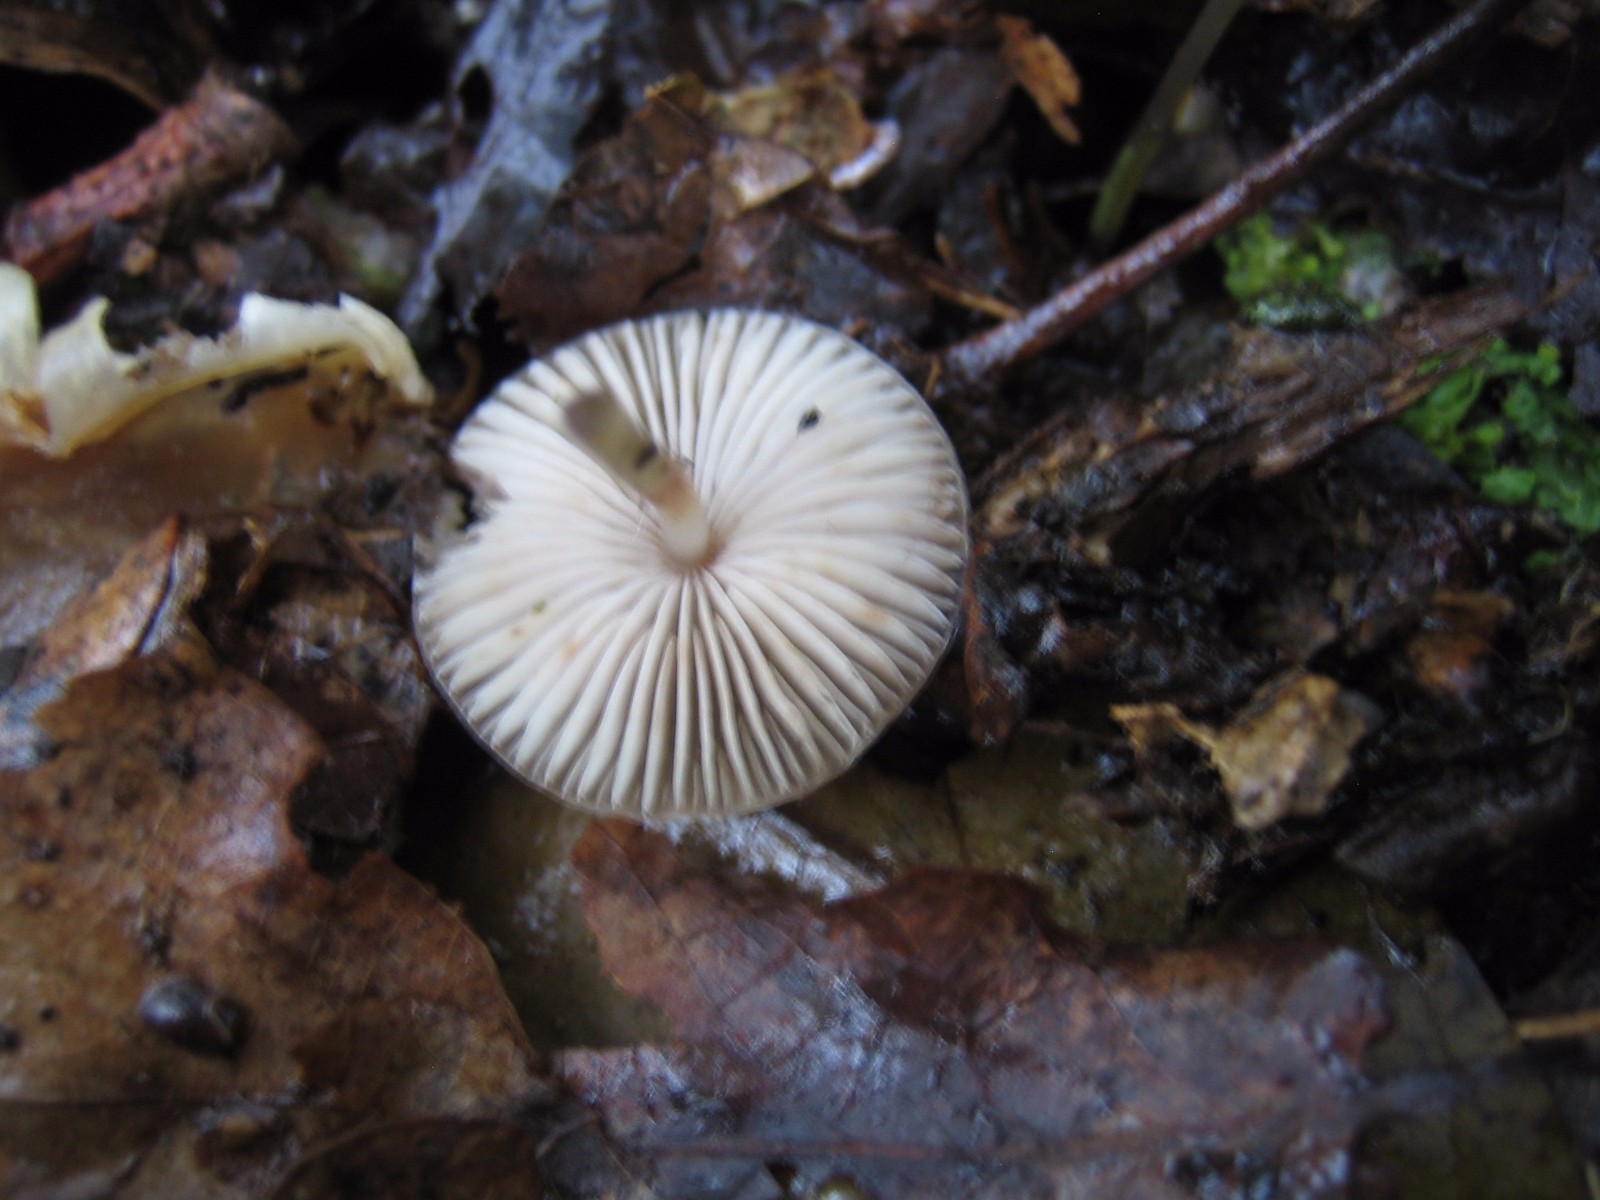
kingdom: Fungi
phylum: Basidiomycota
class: Agaricomycetes
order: Agaricales
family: Mycenaceae
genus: Mycena
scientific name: Mycena vitilis
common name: blankstokket huesvamp
